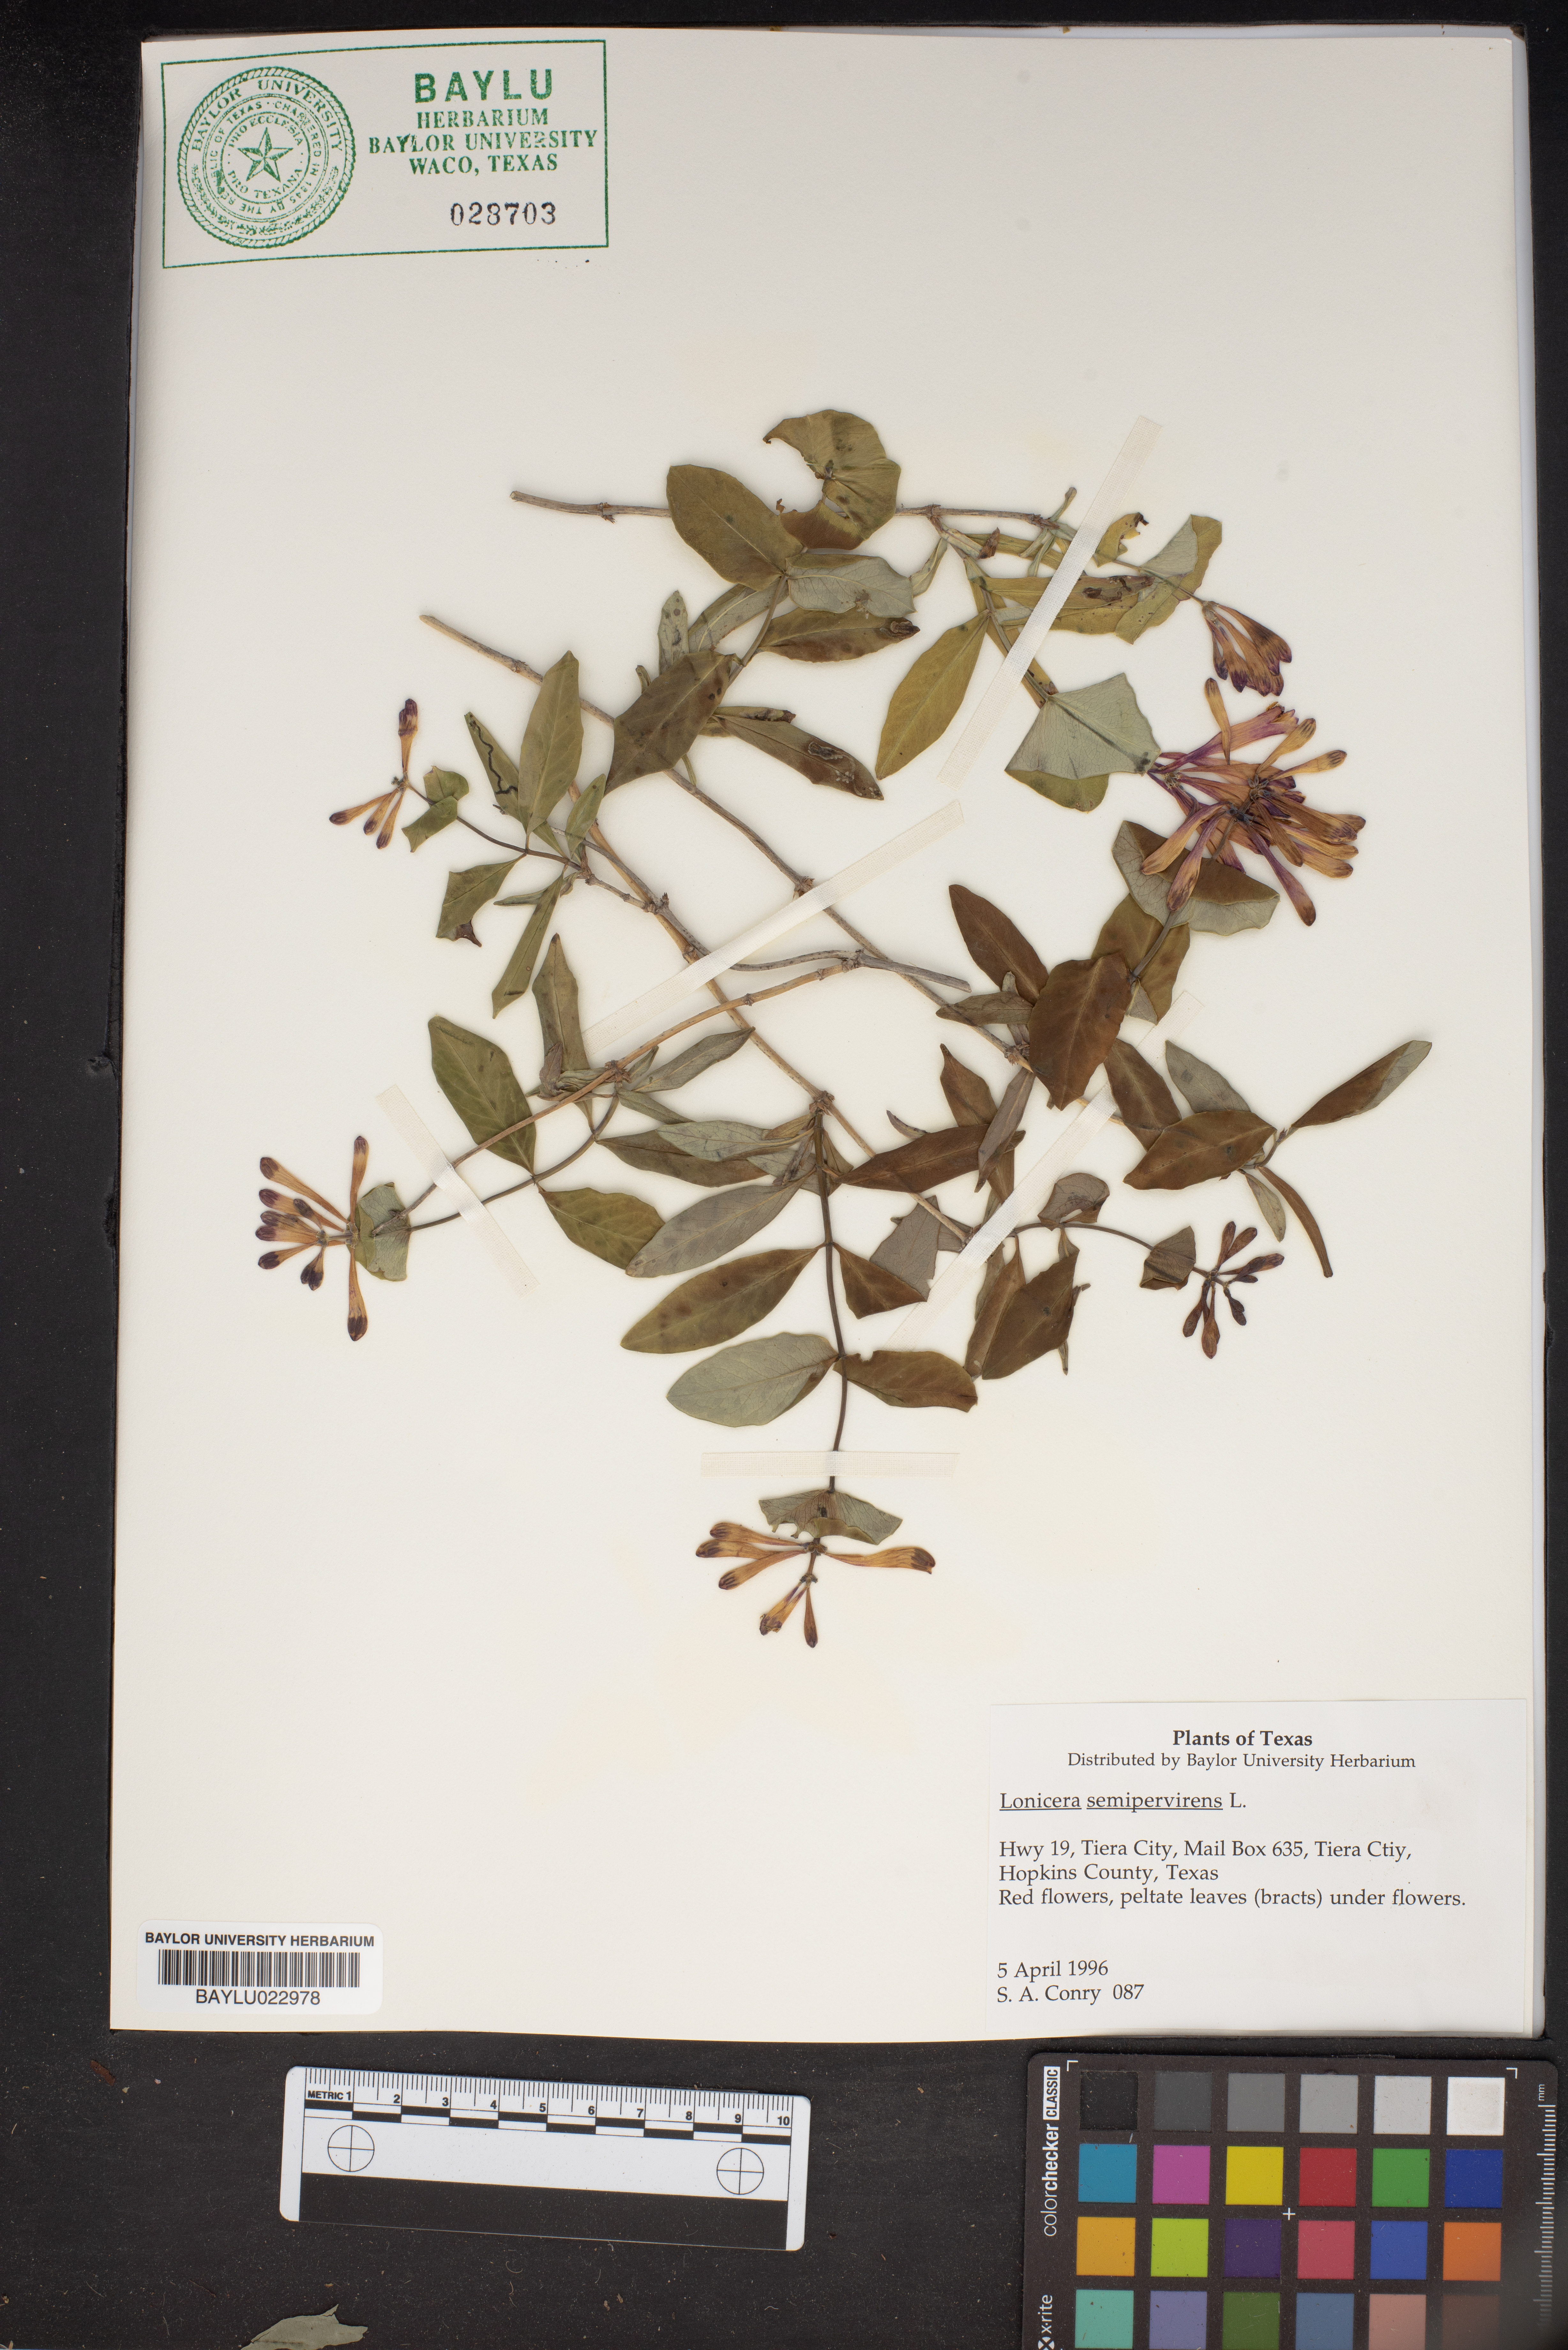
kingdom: Plantae
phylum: Tracheophyta
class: Magnoliopsida
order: Dipsacales
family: Caprifoliaceae
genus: Lonicera
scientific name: Lonicera sempervirens
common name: Coral honeysuckle
